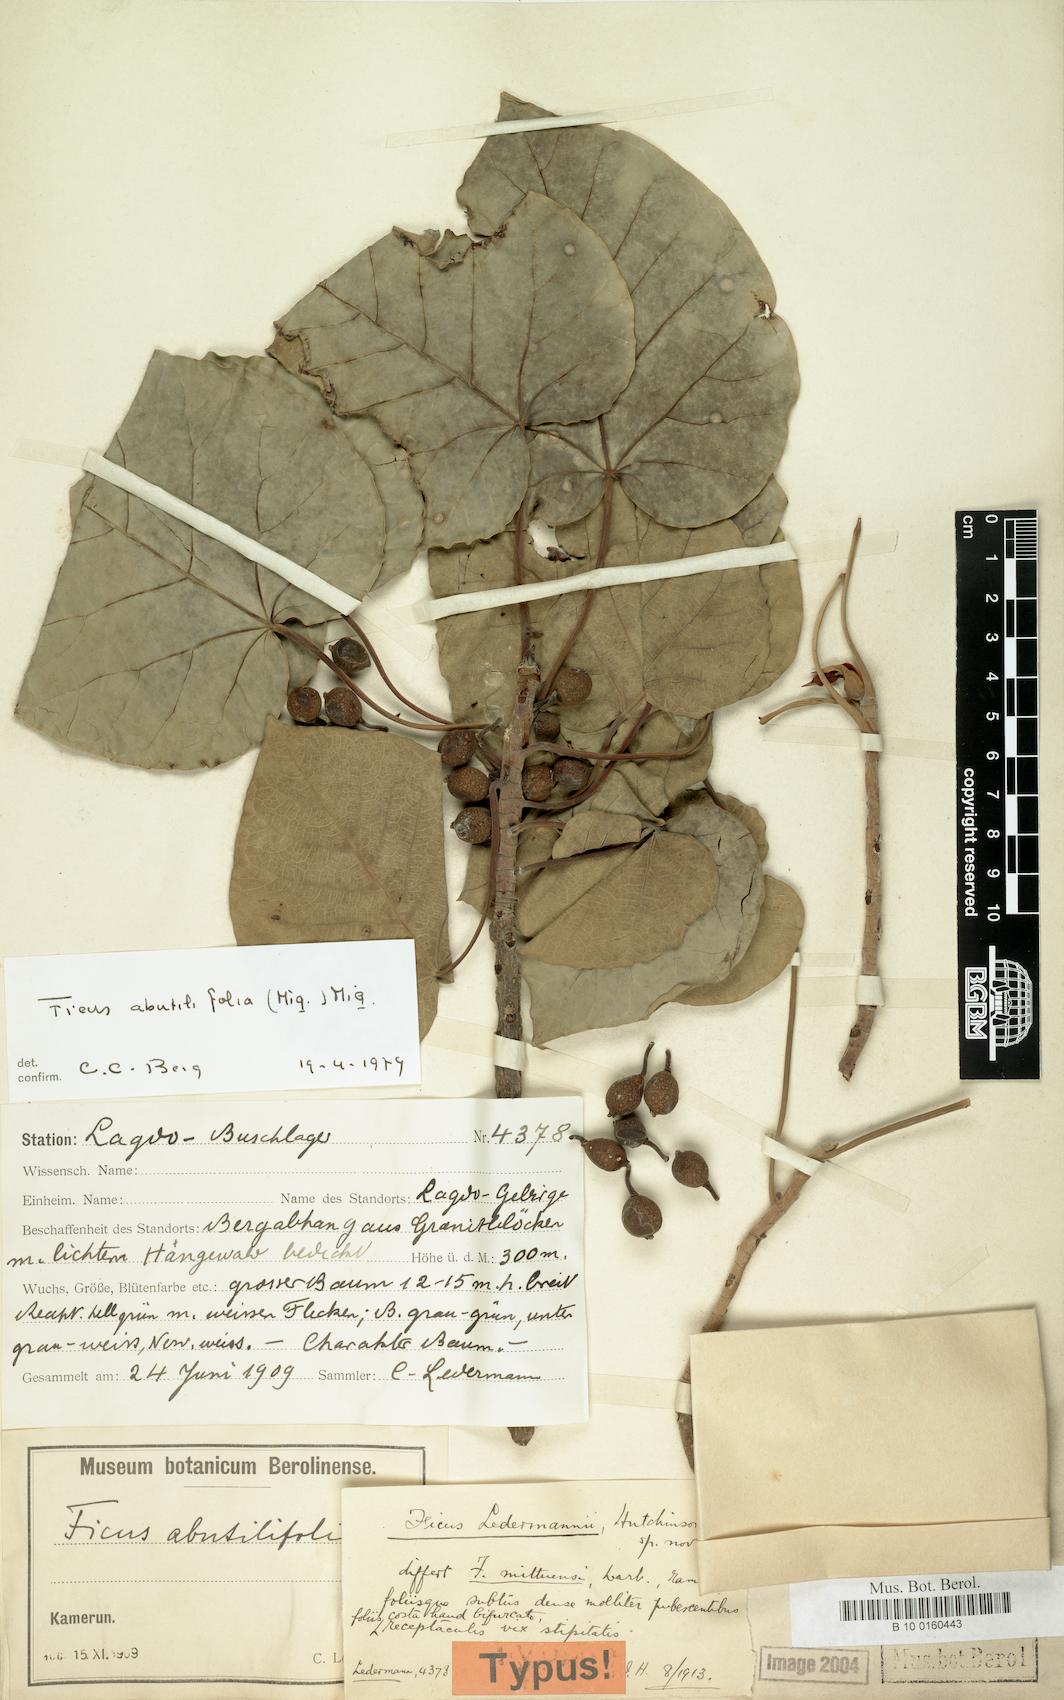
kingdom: Plantae
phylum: Tracheophyta
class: Magnoliopsida
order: Rosales
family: Moraceae
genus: Ficus
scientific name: Ficus abutilifolia
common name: Large-leaved rock fig
